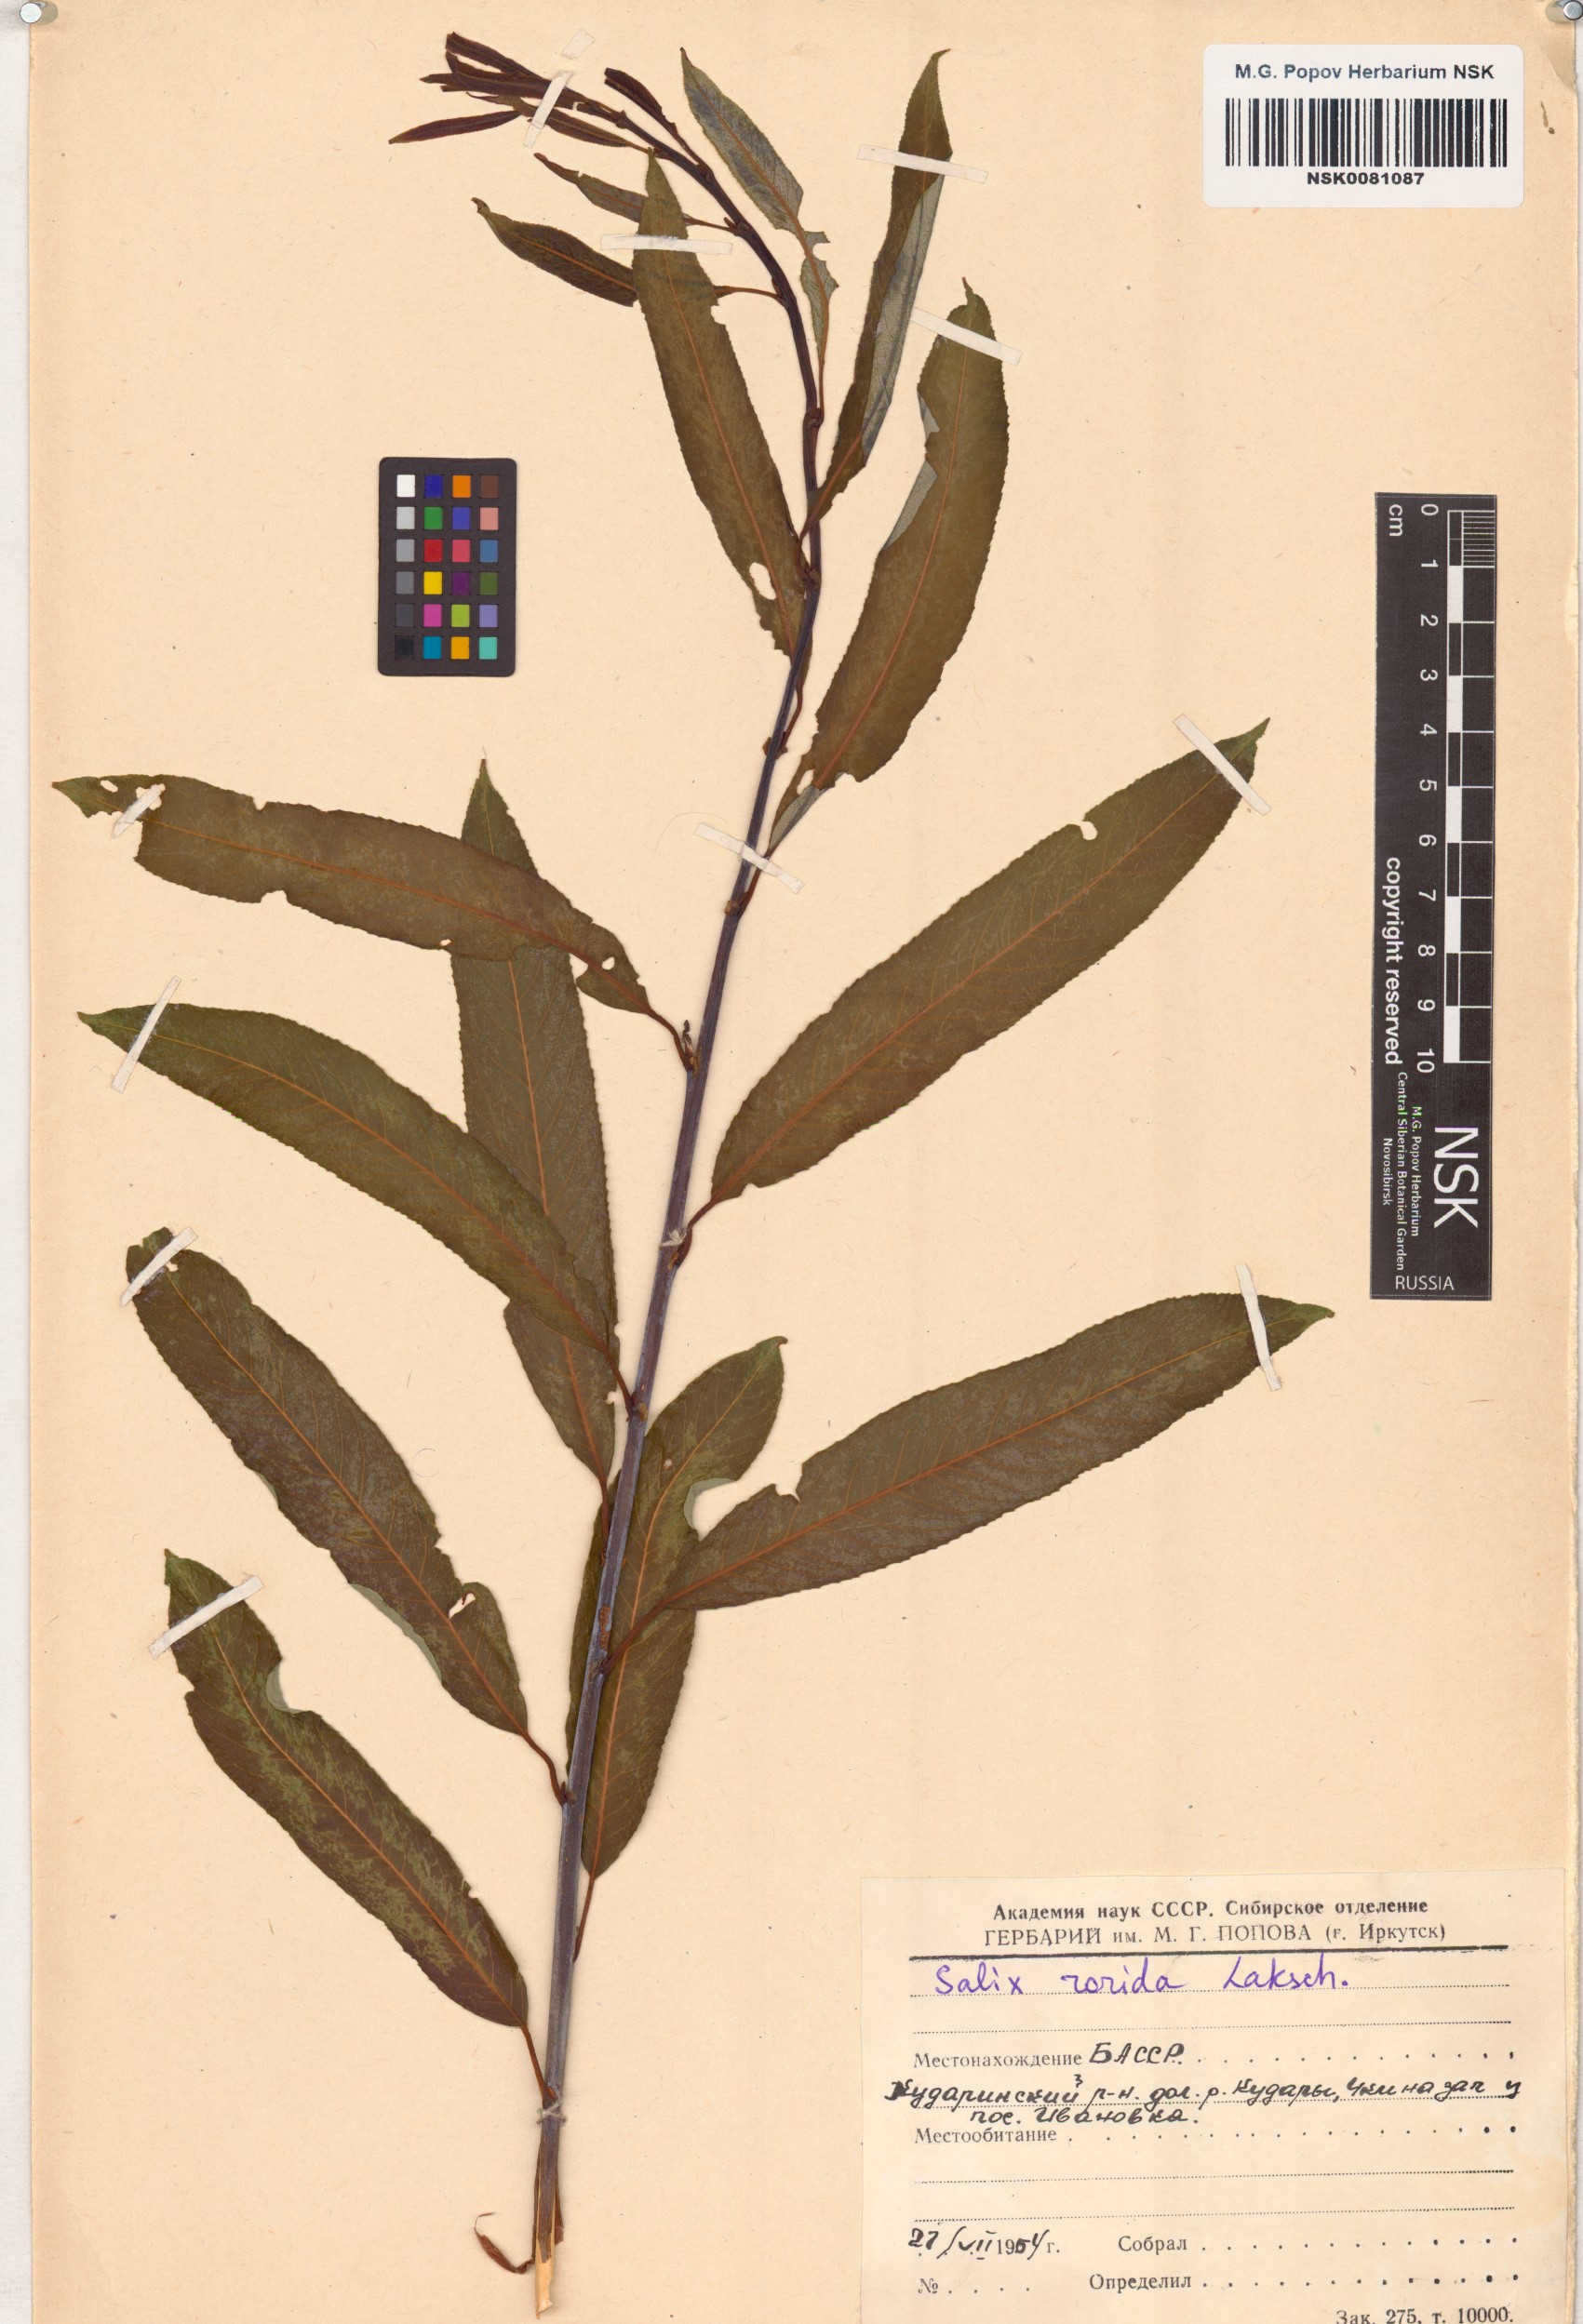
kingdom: Plantae
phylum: Tracheophyta
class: Magnoliopsida
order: Malpighiales
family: Salicaceae
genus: Salix
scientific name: Salix rorida
